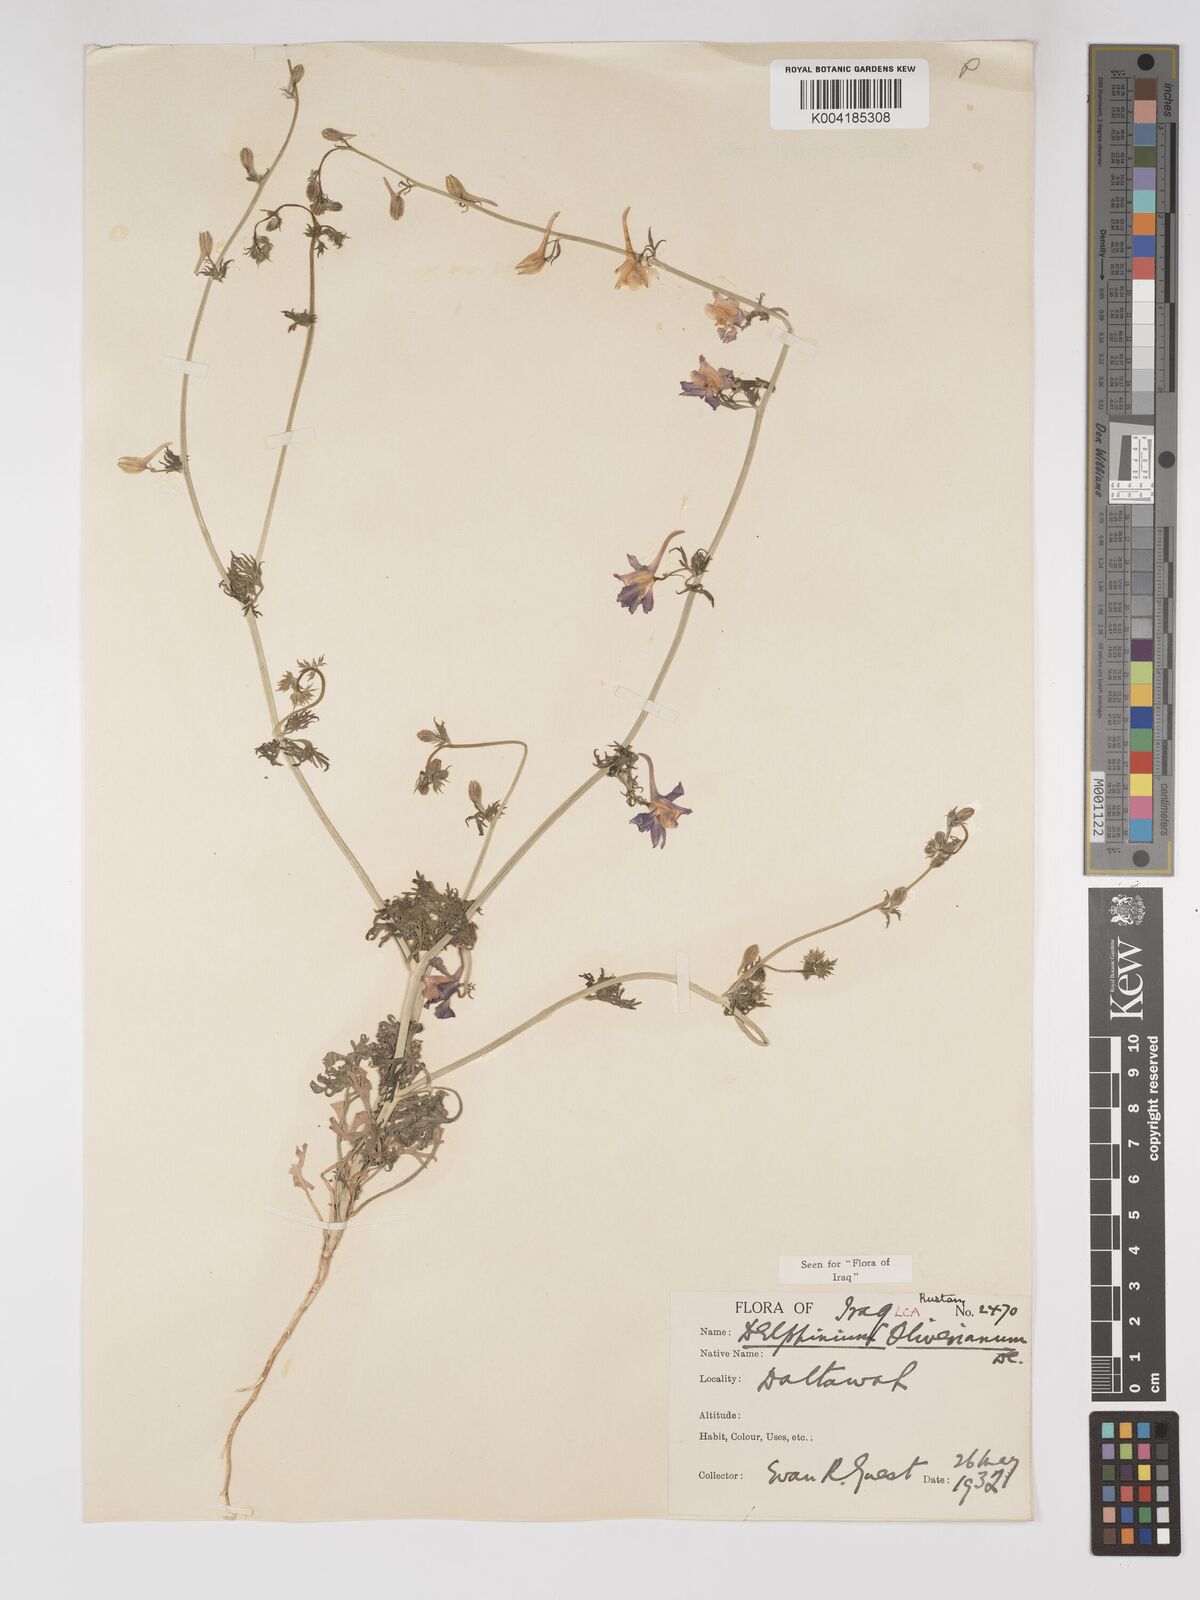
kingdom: Plantae
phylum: Tracheophyta
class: Magnoliopsida
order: Ranunculales
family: Ranunculaceae
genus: Delphinium
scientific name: Delphinium oliverianum
